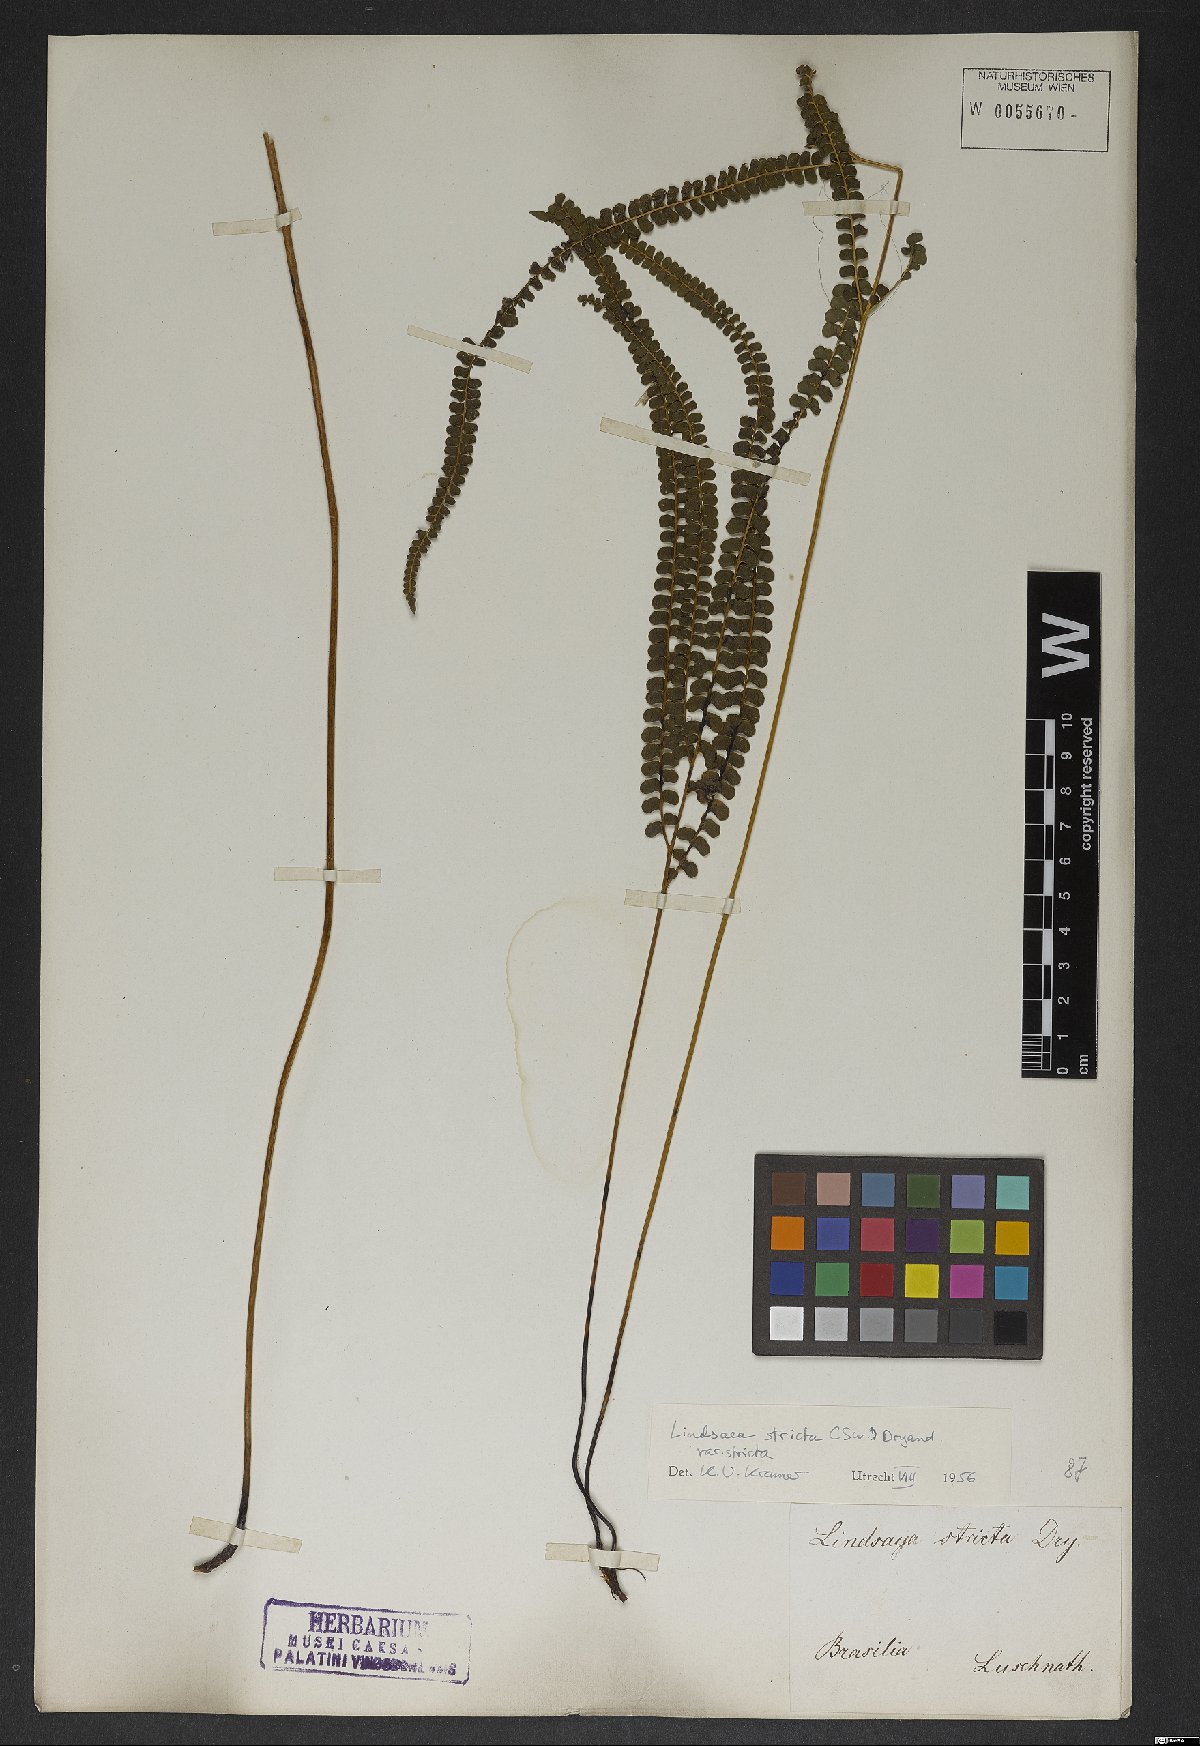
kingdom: Plantae
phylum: Tracheophyta
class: Polypodiopsida
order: Polypodiales
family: Lindsaeaceae
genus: Lindsaea
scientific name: Lindsaea stricta
